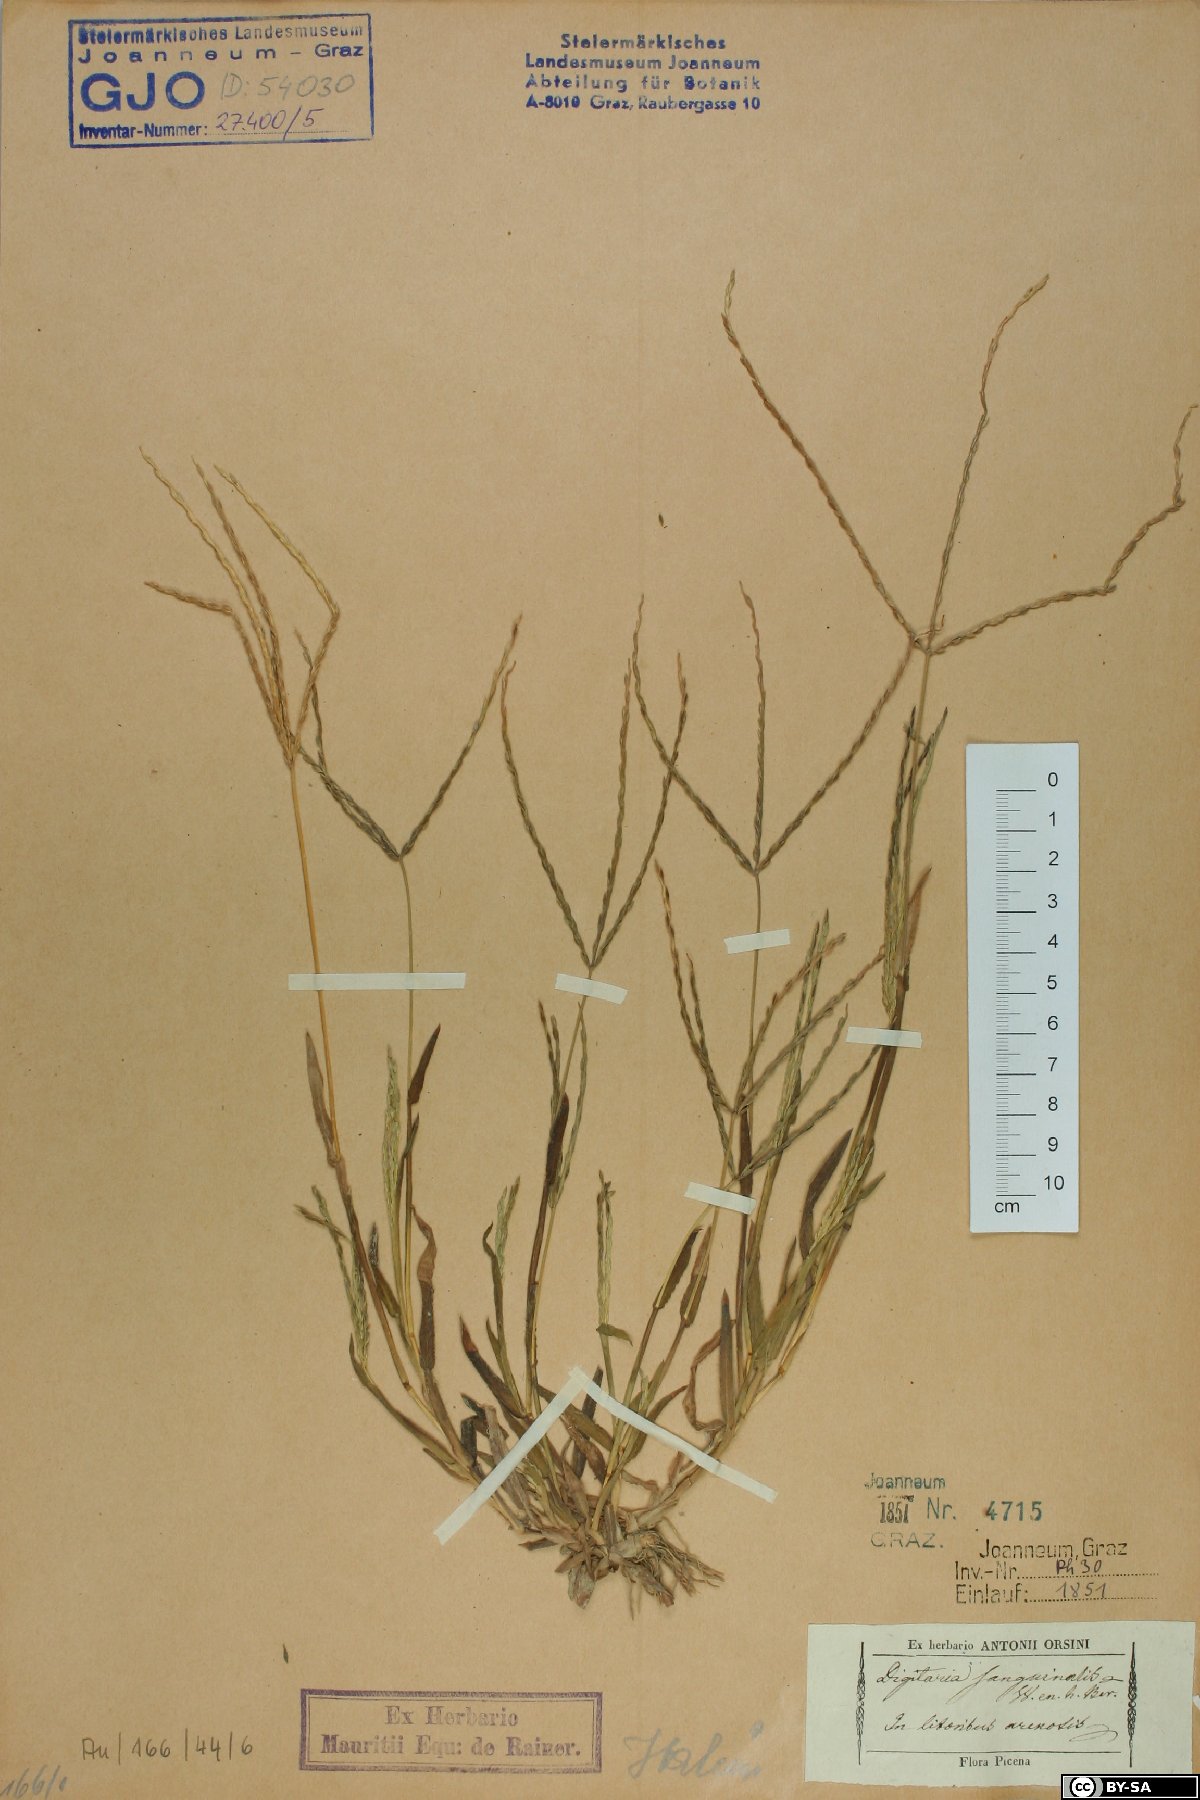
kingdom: Plantae
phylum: Tracheophyta
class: Liliopsida
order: Poales
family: Poaceae
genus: Digitaria
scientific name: Digitaria sanguinalis
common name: Hairy crabgrass
